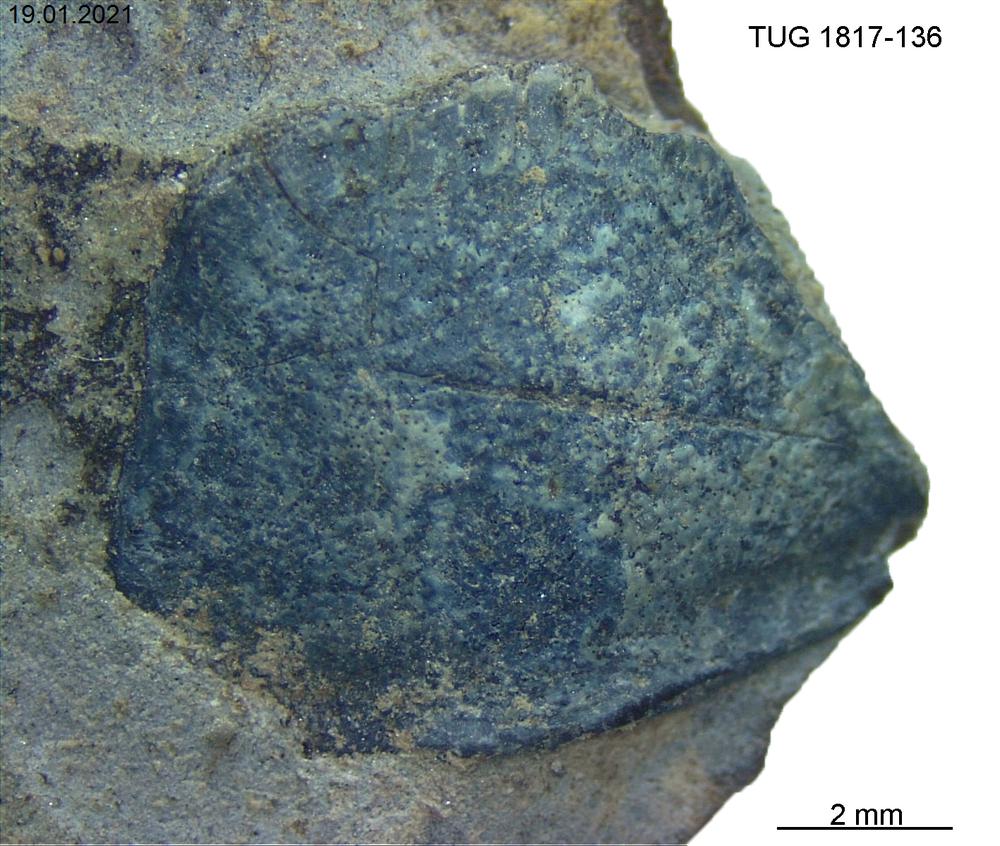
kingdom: Animalia
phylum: Chordata
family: Coccosteidae
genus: Millerosteus
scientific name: Millerosteus minor
